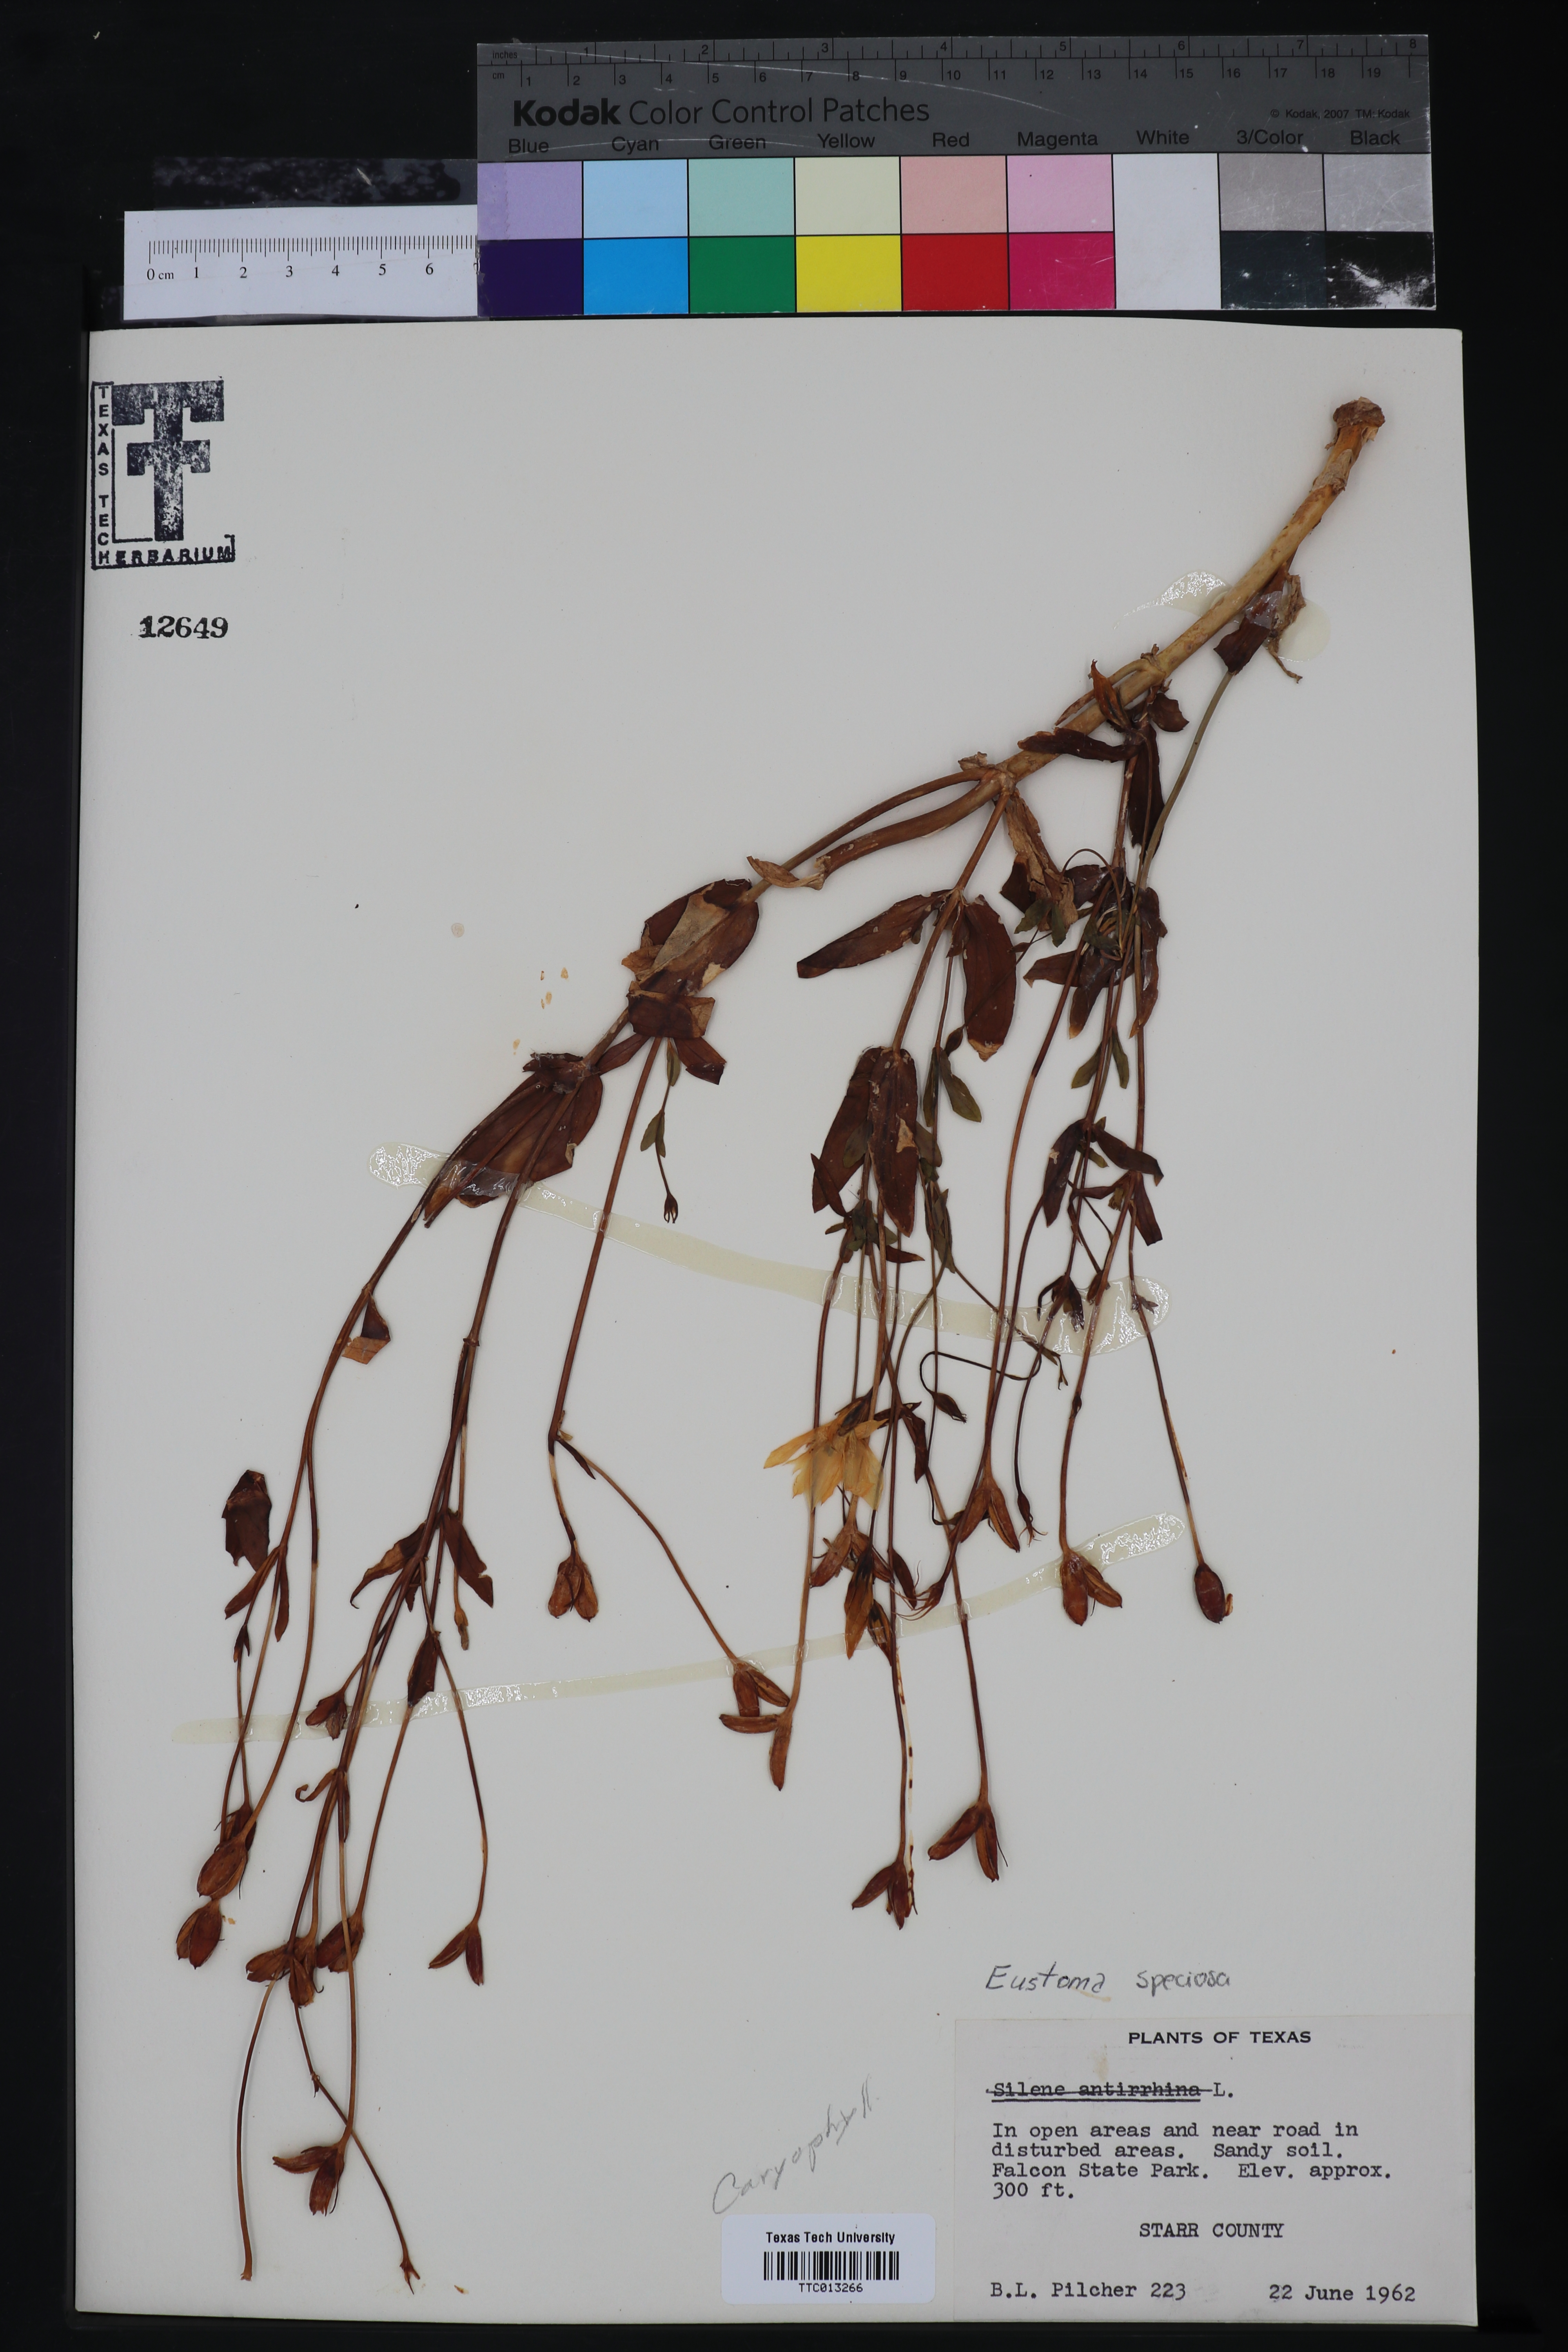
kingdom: Plantae
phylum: Tracheophyta
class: Magnoliopsida
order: Gentianales
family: Gentianaceae
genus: Eustoma
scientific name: Eustoma
